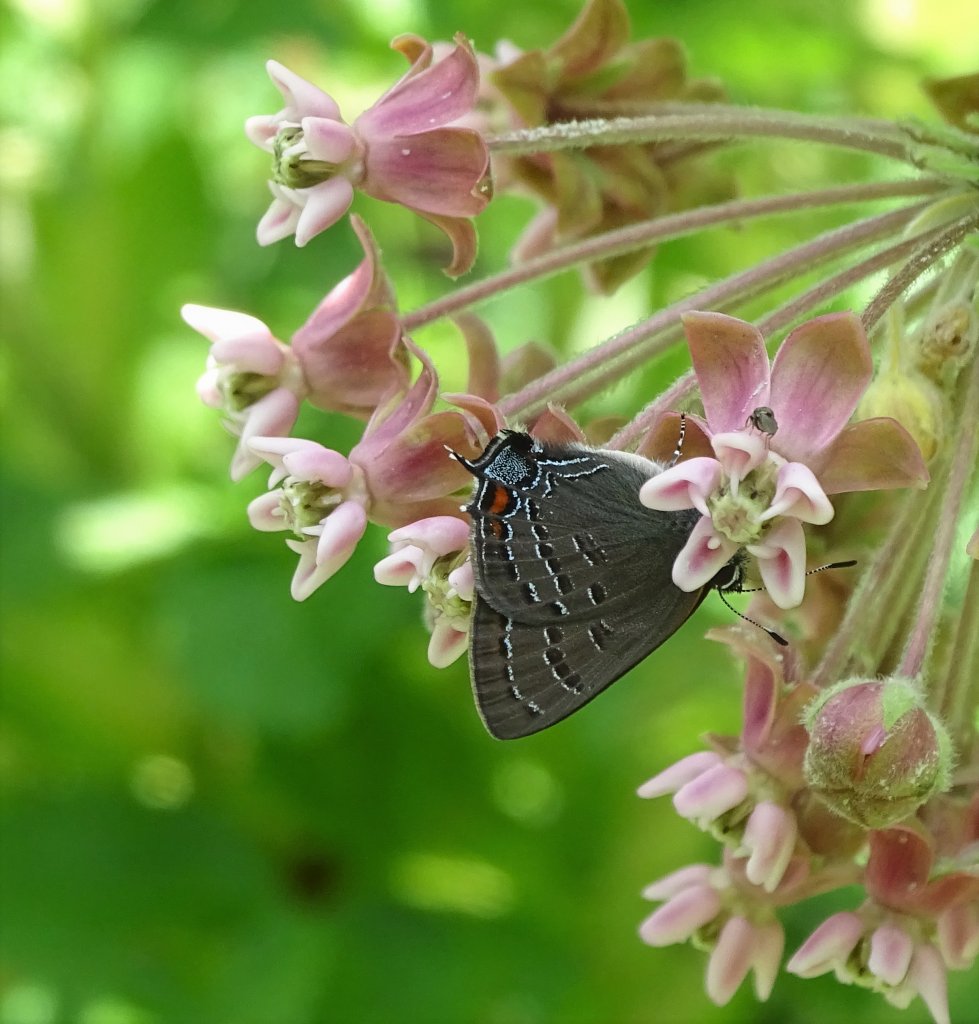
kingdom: Animalia
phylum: Arthropoda
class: Insecta
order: Lepidoptera
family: Lycaenidae
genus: Satyrium
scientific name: Satyrium calanus
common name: Banded Hairstreak
